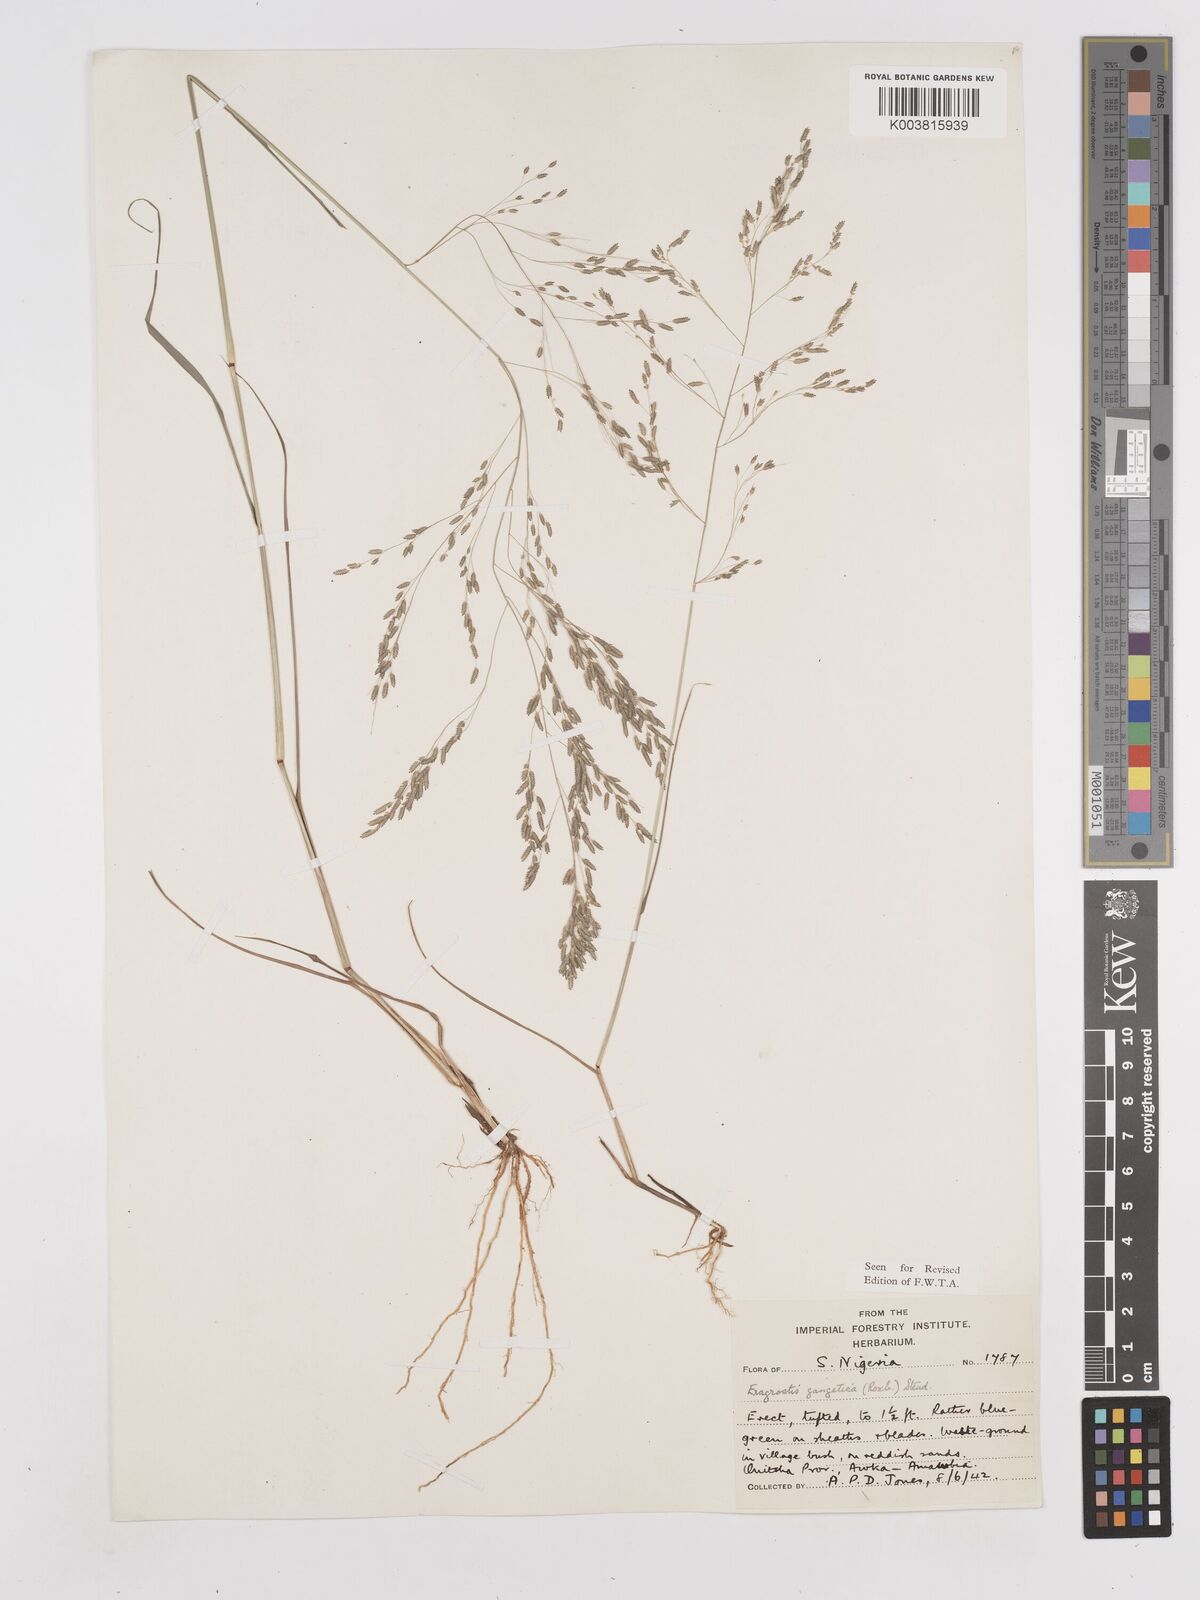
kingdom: Plantae
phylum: Tracheophyta
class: Liliopsida
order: Poales
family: Poaceae
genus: Eragrostis
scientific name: Eragrostis gangetica
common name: Slimflower lovegrass
